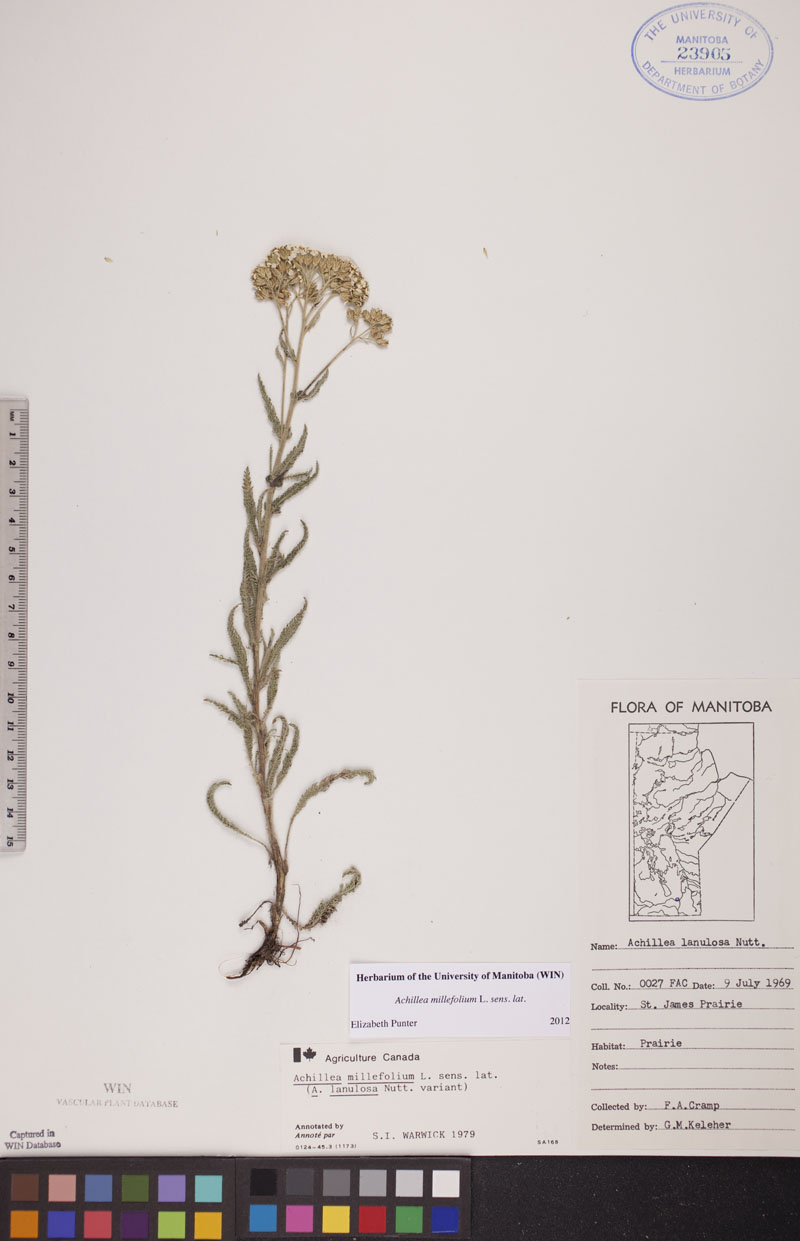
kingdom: Plantae
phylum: Tracheophyta
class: Magnoliopsida
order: Asterales
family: Asteraceae
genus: Achillea
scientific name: Achillea millefolium
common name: Yarrow
